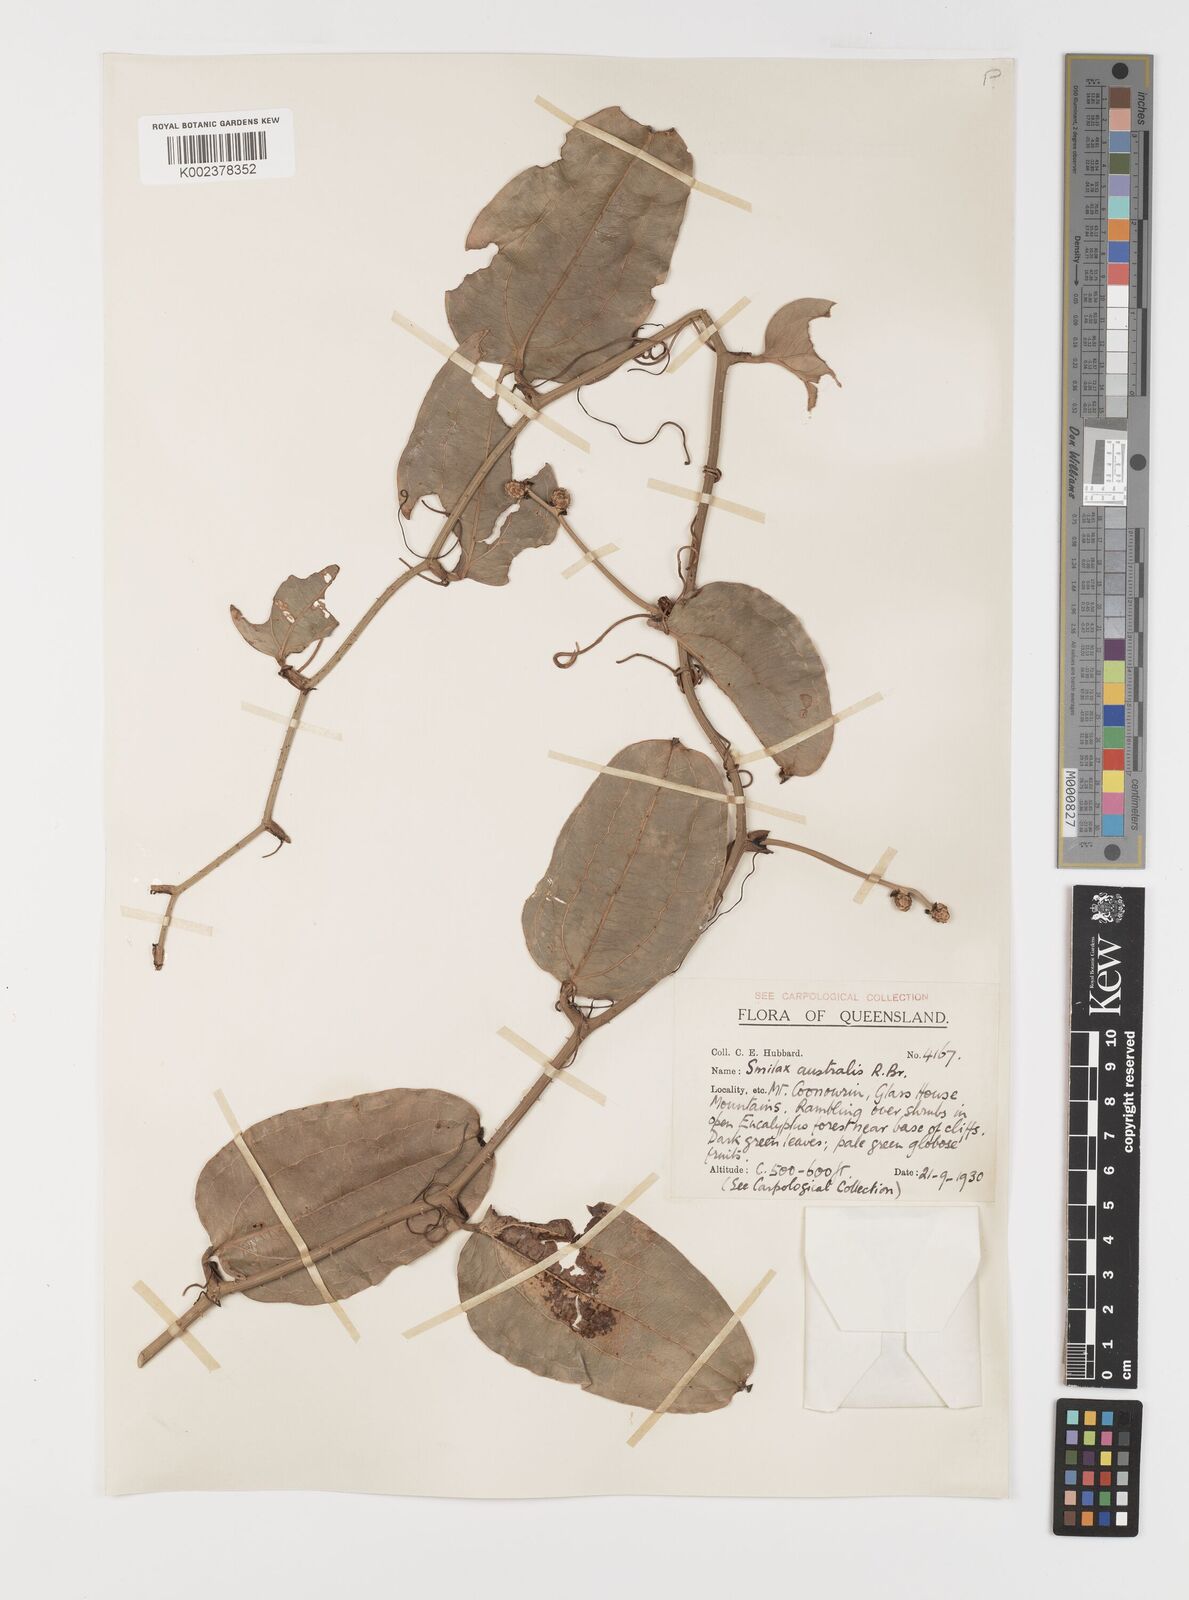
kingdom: Plantae
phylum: Tracheophyta
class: Liliopsida
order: Liliales
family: Smilacaceae
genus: Smilax
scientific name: Smilax australis
